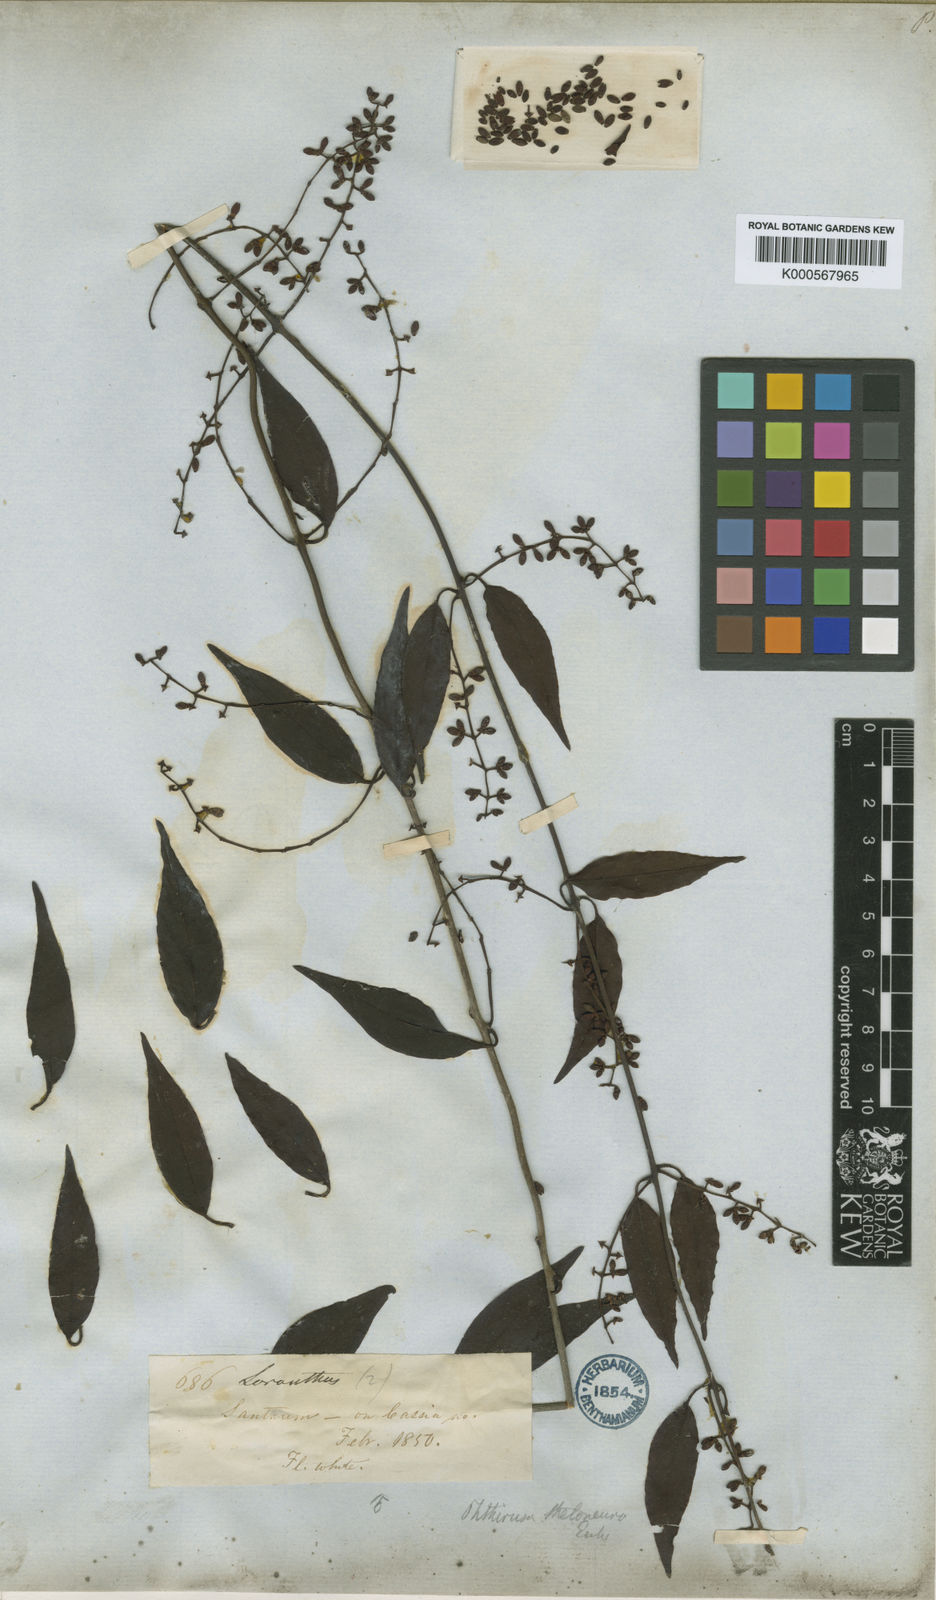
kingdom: Plantae
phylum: Tracheophyta
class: Magnoliopsida
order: Santalales
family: Loranthaceae
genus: Passovia
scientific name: Passovia theloneura
